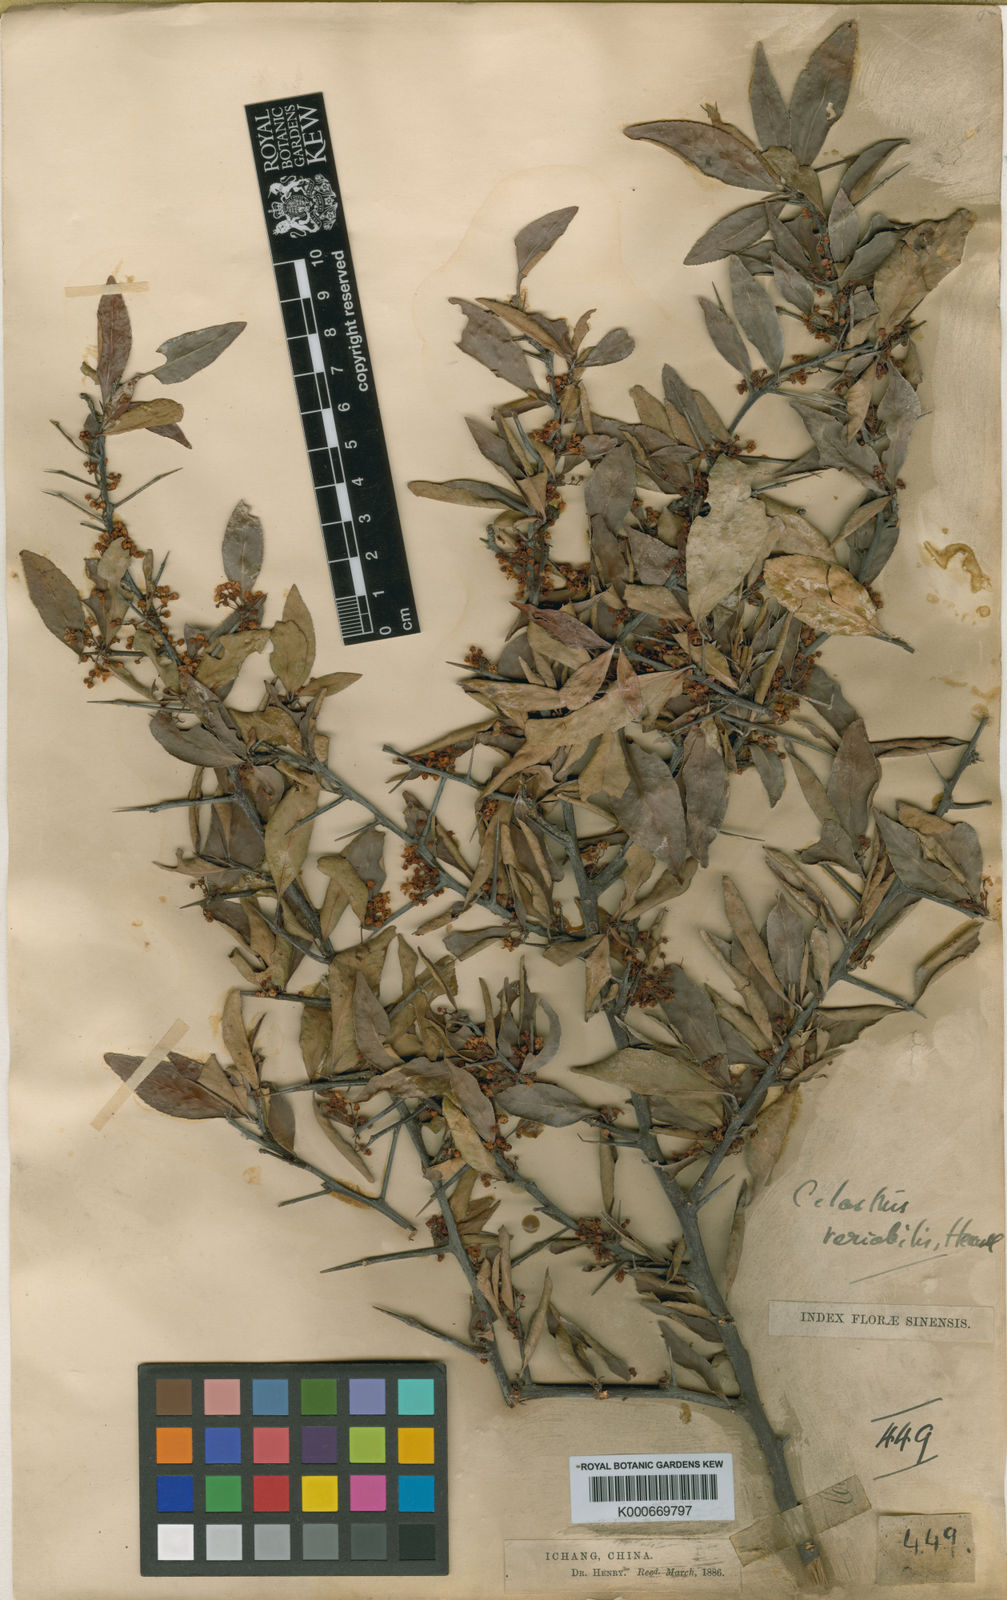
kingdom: Plantae
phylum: Tracheophyta
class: Magnoliopsida
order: Celastrales
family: Celastraceae
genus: Gymnosporia
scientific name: Gymnosporia variabilis
